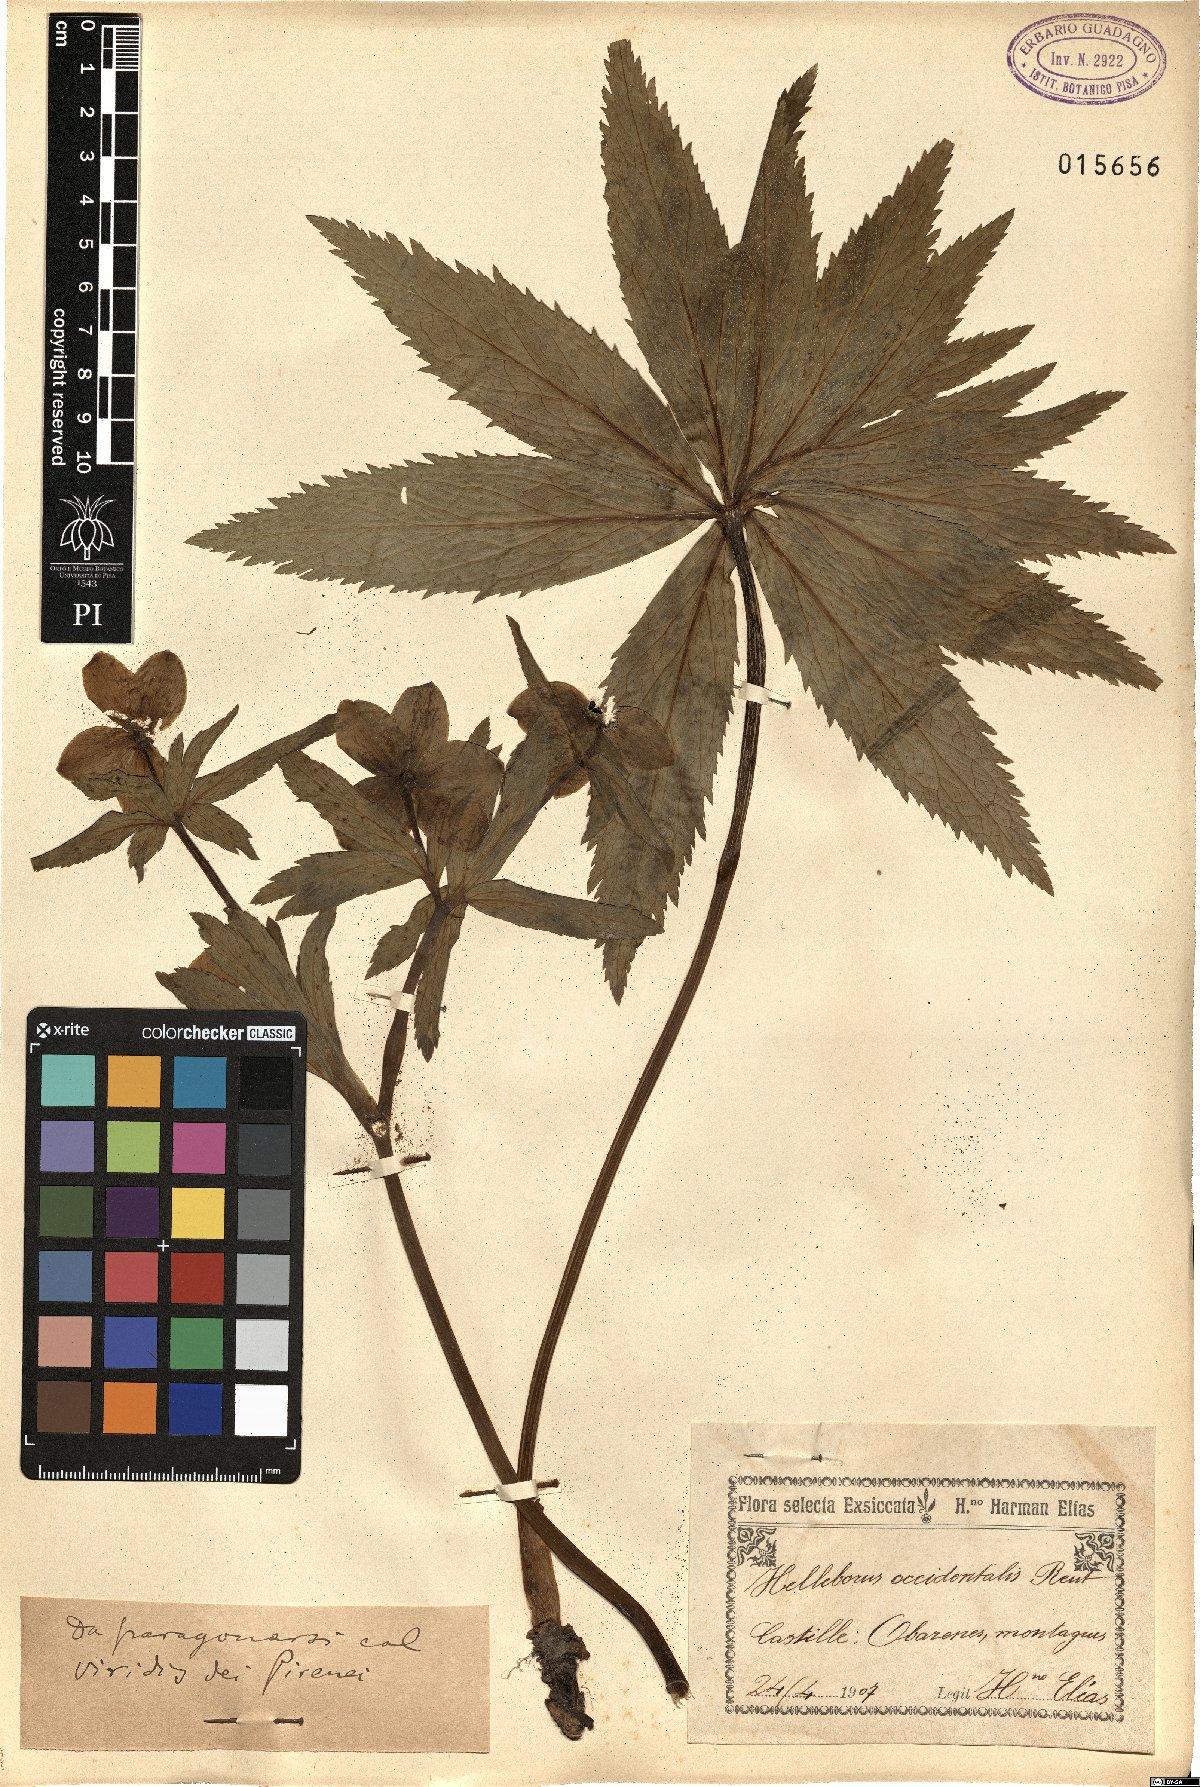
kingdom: Plantae
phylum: Tracheophyta
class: Magnoliopsida
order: Ranunculales
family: Ranunculaceae
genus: Helleborus
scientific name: Helleborus viridis
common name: Green hellebore
